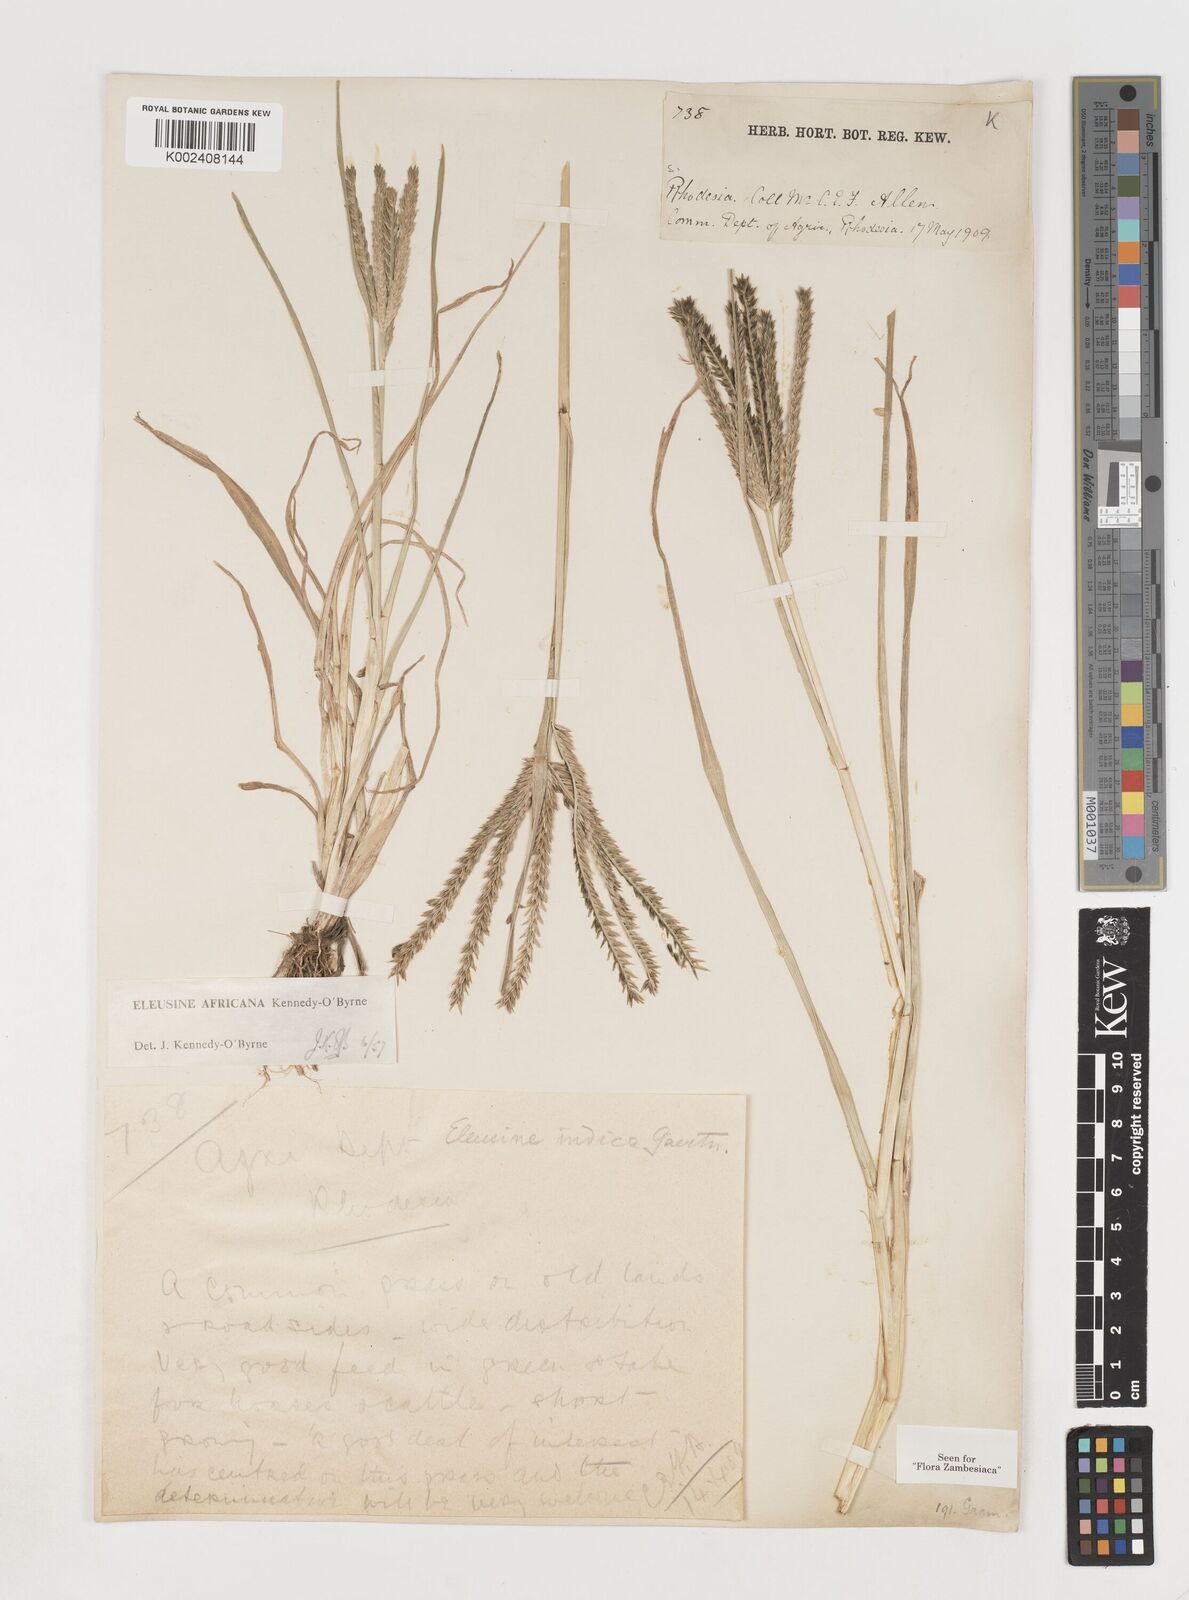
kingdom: Plantae
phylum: Tracheophyta
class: Liliopsida
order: Poales
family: Poaceae
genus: Eleusine
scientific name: Eleusine africana
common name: Wild african finger millet
